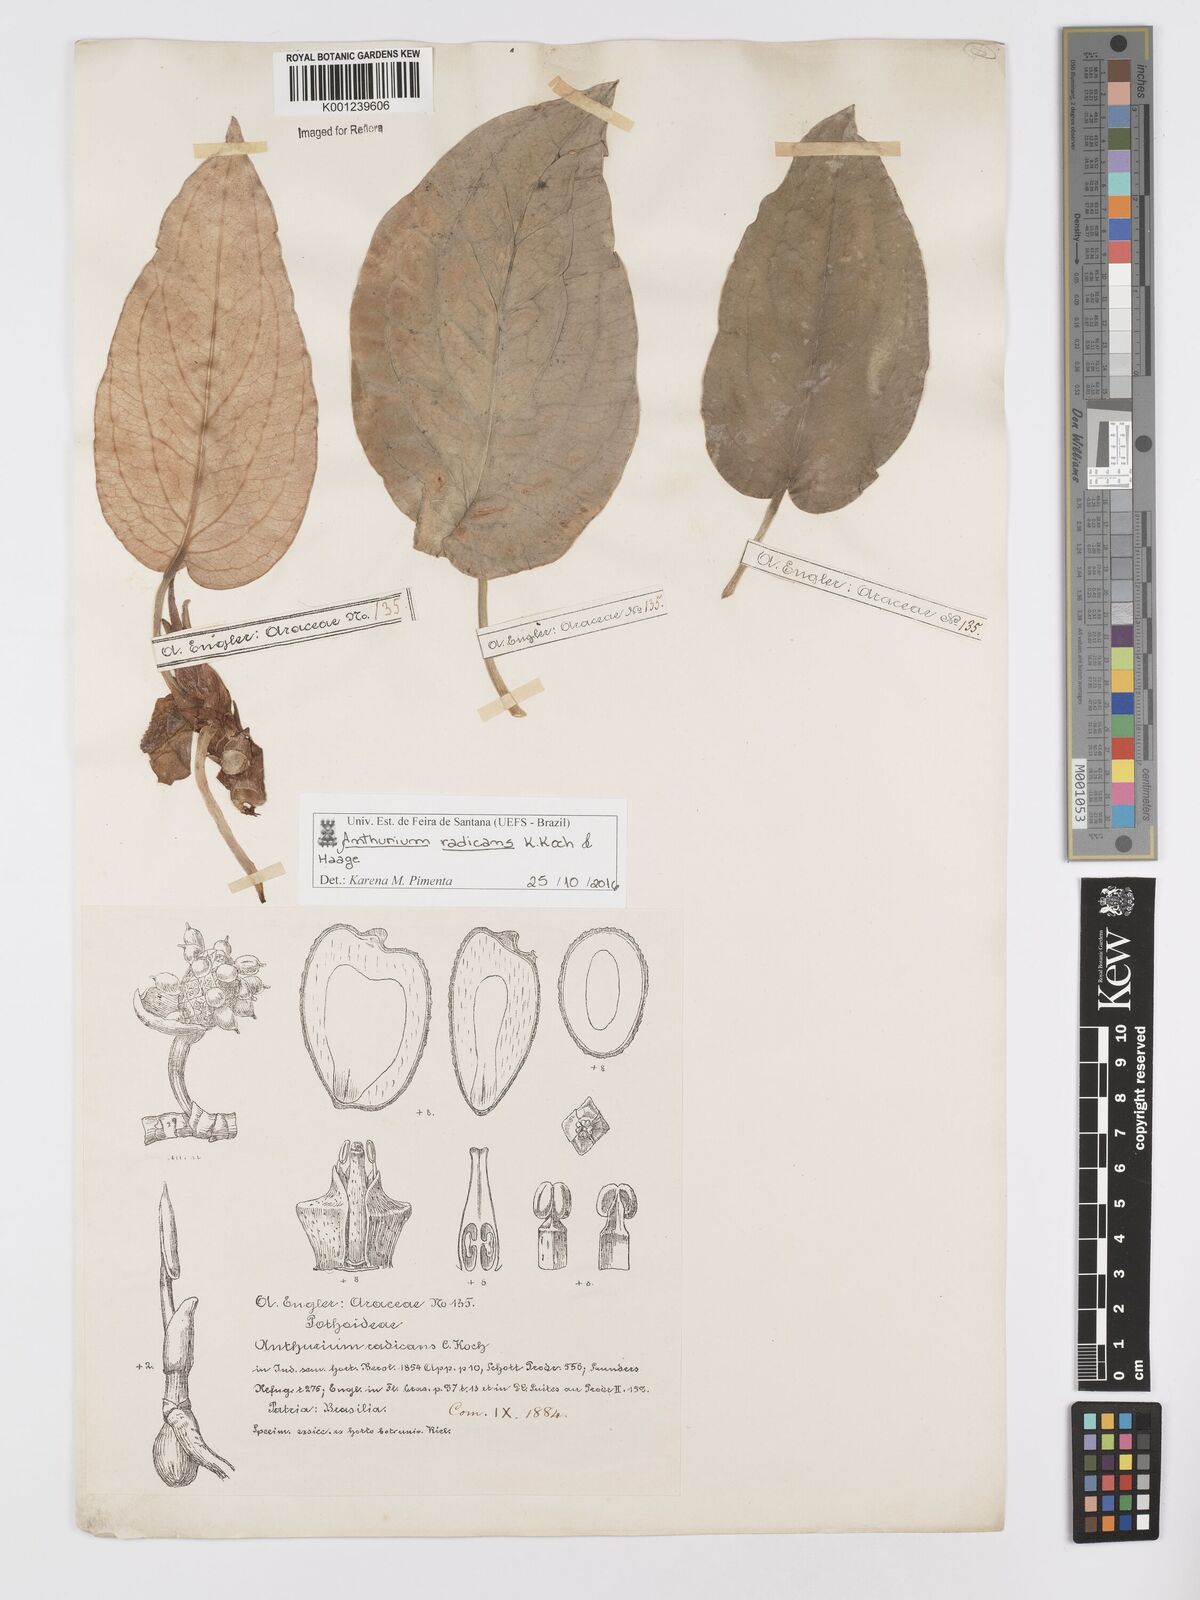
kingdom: Plantae
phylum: Tracheophyta
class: Liliopsida
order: Alismatales
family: Araceae
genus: Anthurium
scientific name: Anthurium radicans
